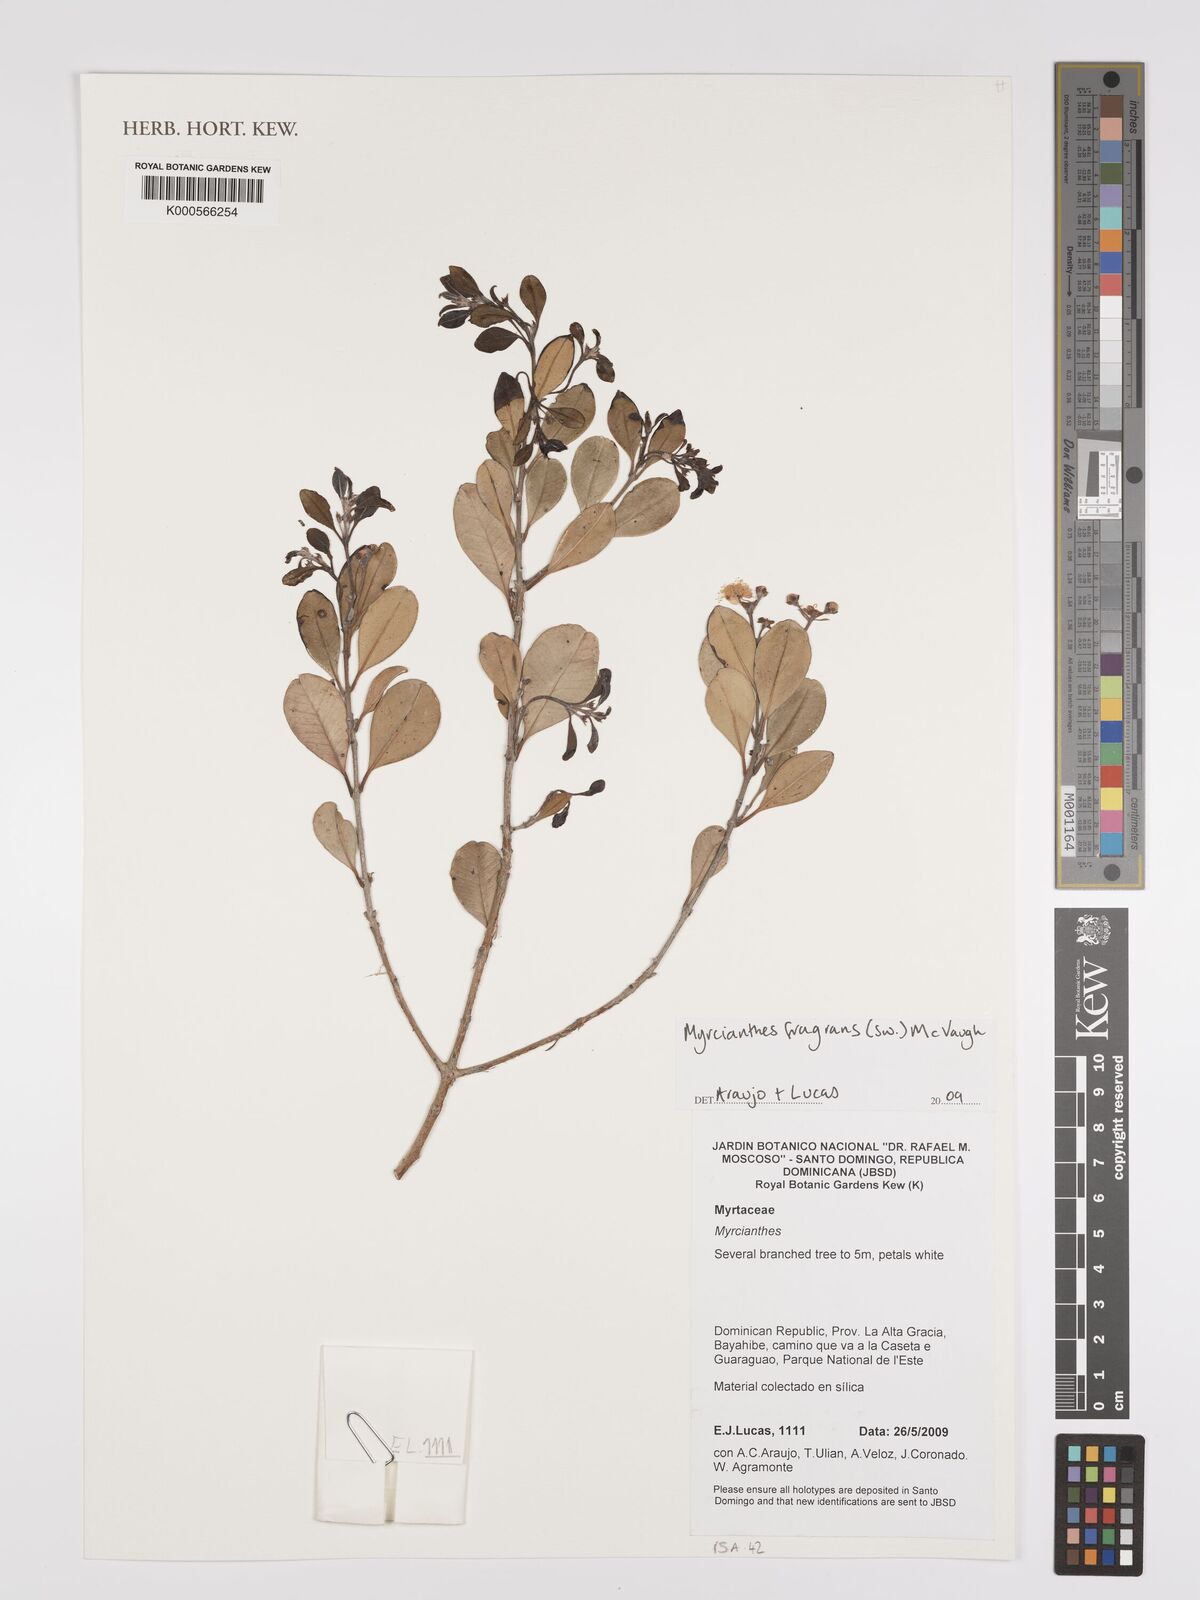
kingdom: Plantae
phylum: Tracheophyta
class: Magnoliopsida
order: Myrtales
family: Myrtaceae
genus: Myrcianthes
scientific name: Myrcianthes fragrans
